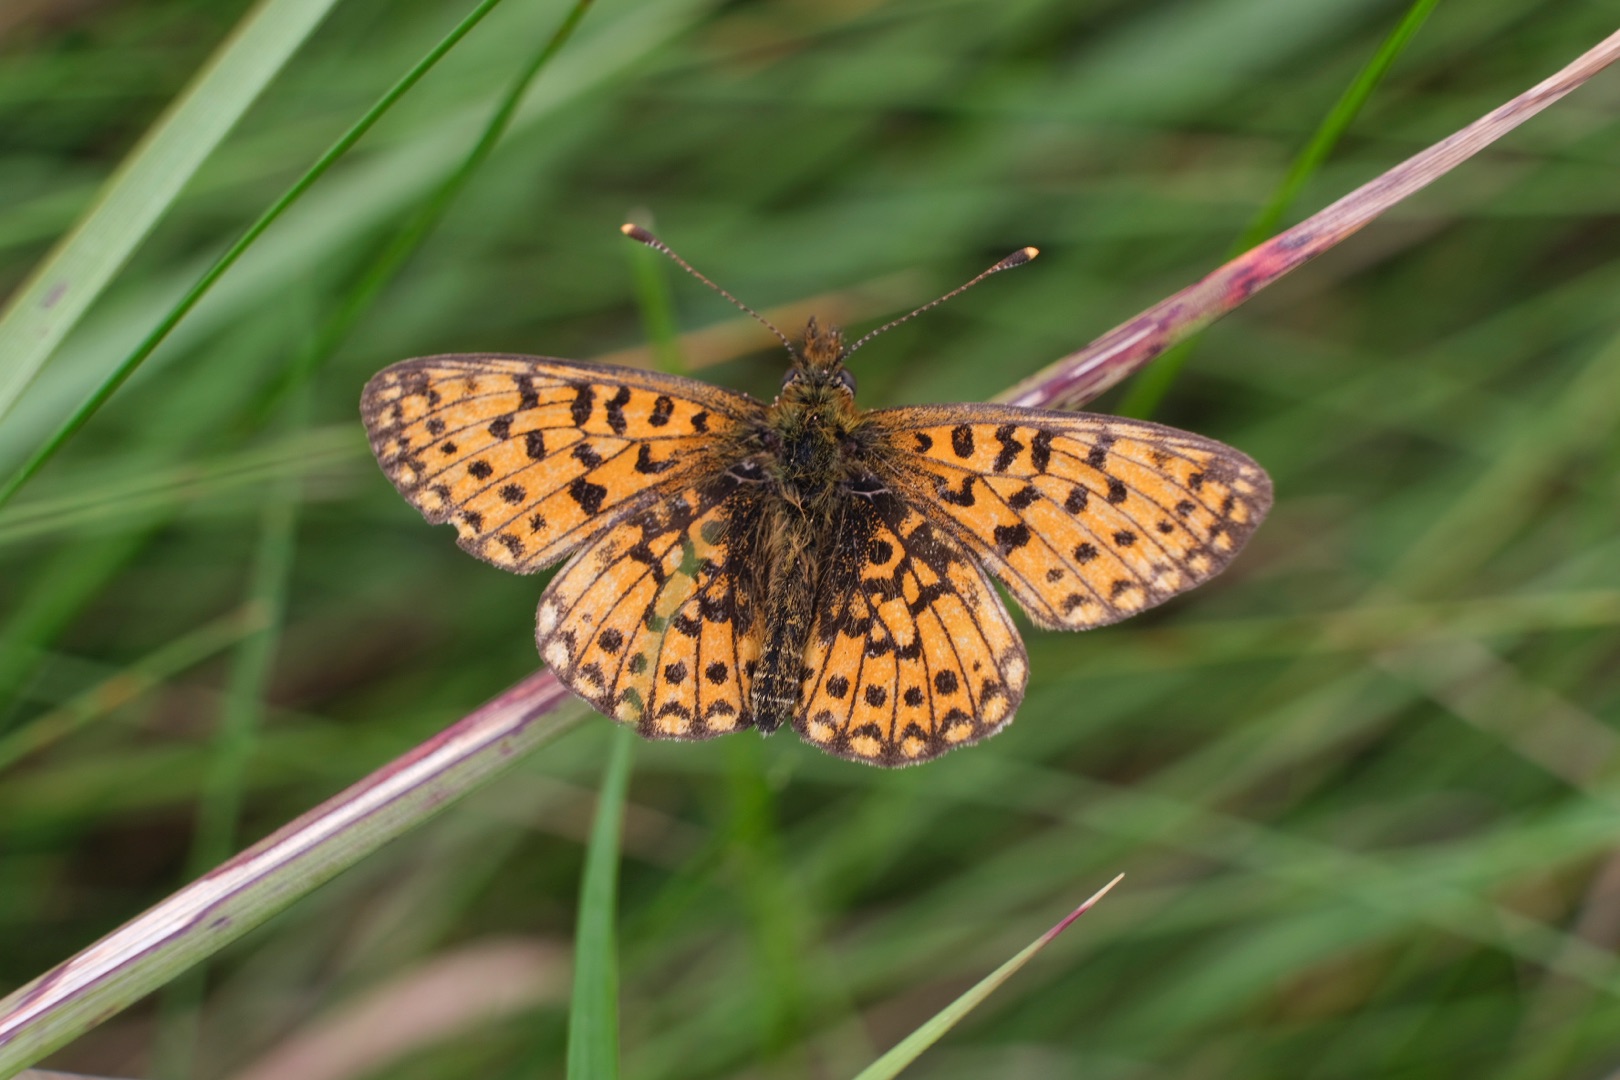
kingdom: Animalia
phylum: Arthropoda
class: Insecta
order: Lepidoptera
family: Nymphalidae
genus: Boloria
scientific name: Boloria selene
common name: Brunlig perlemorsommerfugl
